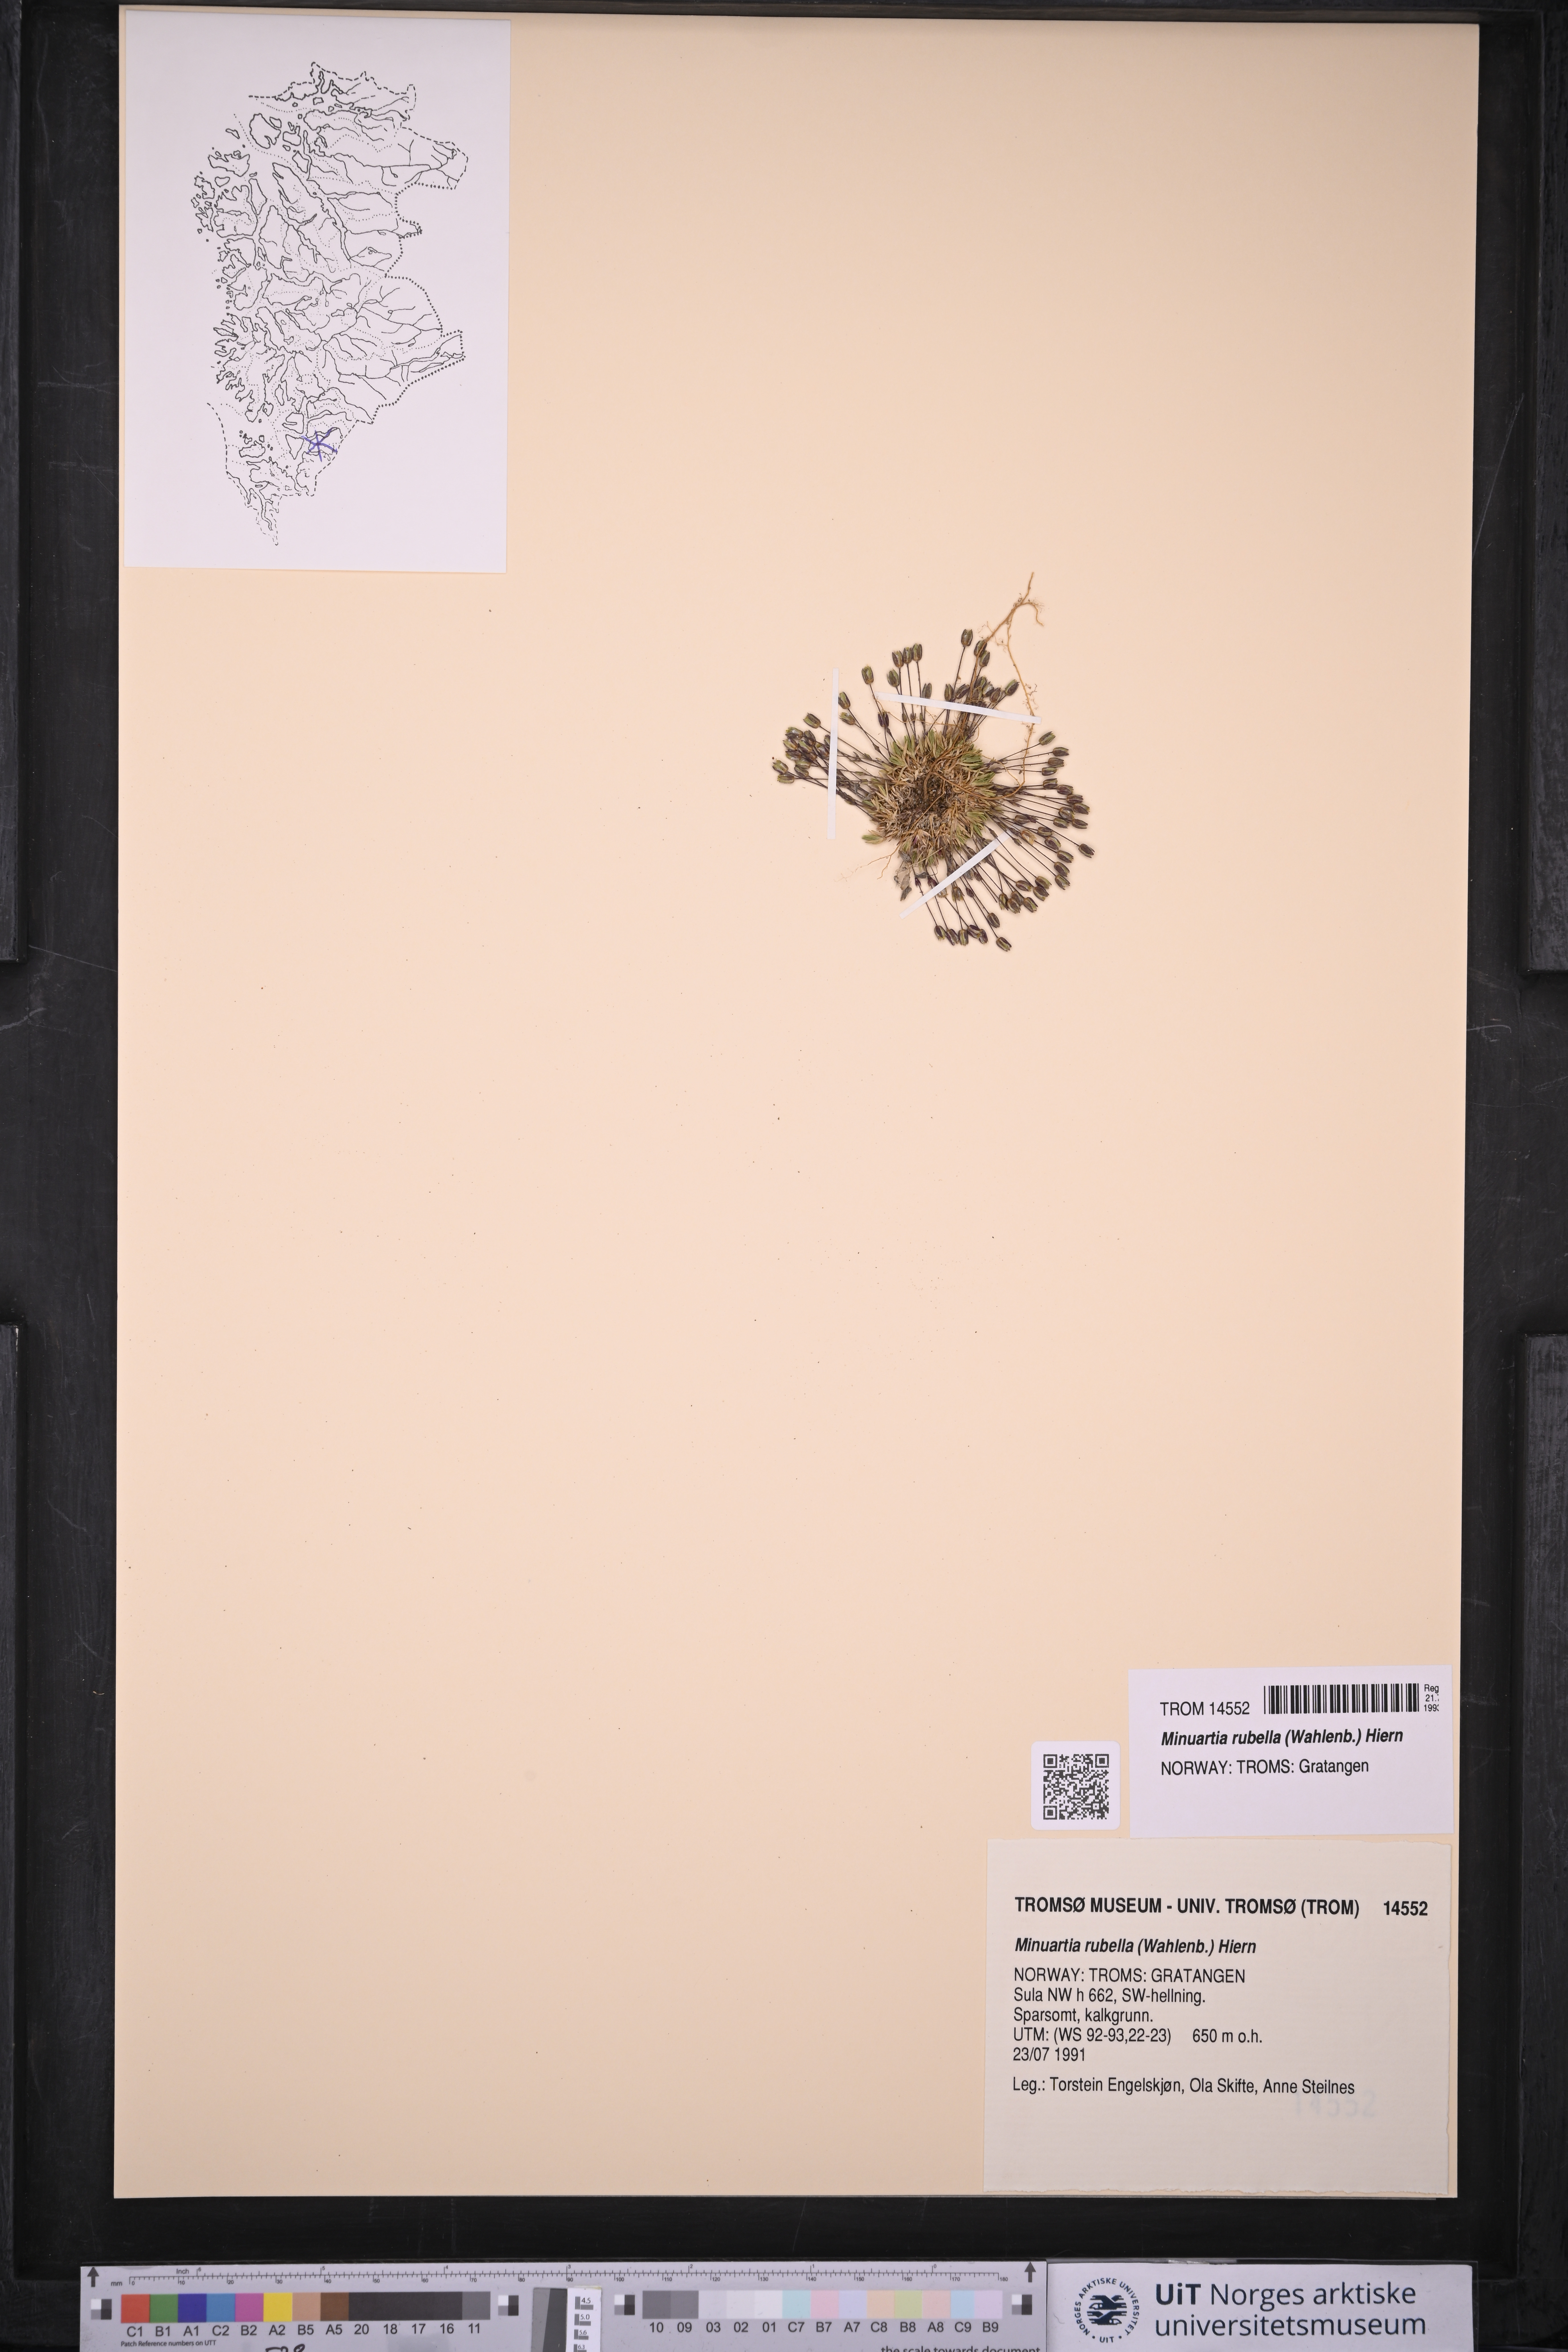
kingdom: Plantae
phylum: Tracheophyta
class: Magnoliopsida
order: Caryophyllales
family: Caryophyllaceae
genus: Sabulina
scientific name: Sabulina rubella
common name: Beautiful sandwort
